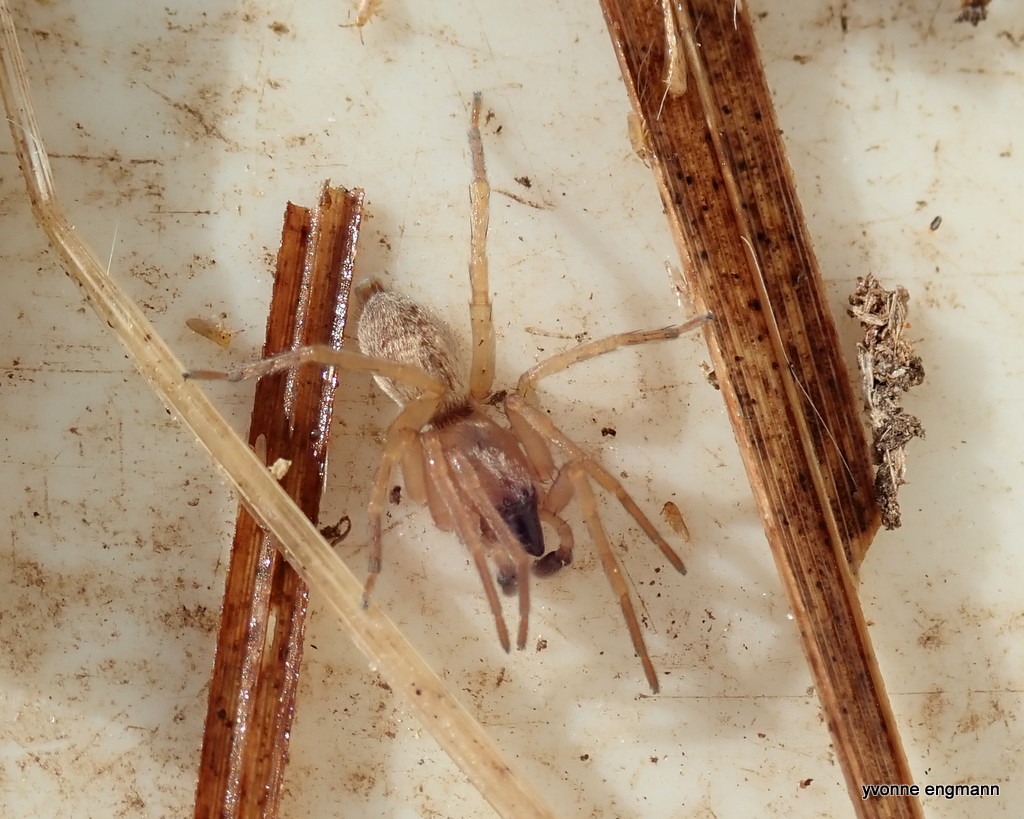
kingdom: Animalia
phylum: Arthropoda
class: Arachnida
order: Araneae
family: Clubionidae
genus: Clubiona
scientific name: Clubiona
